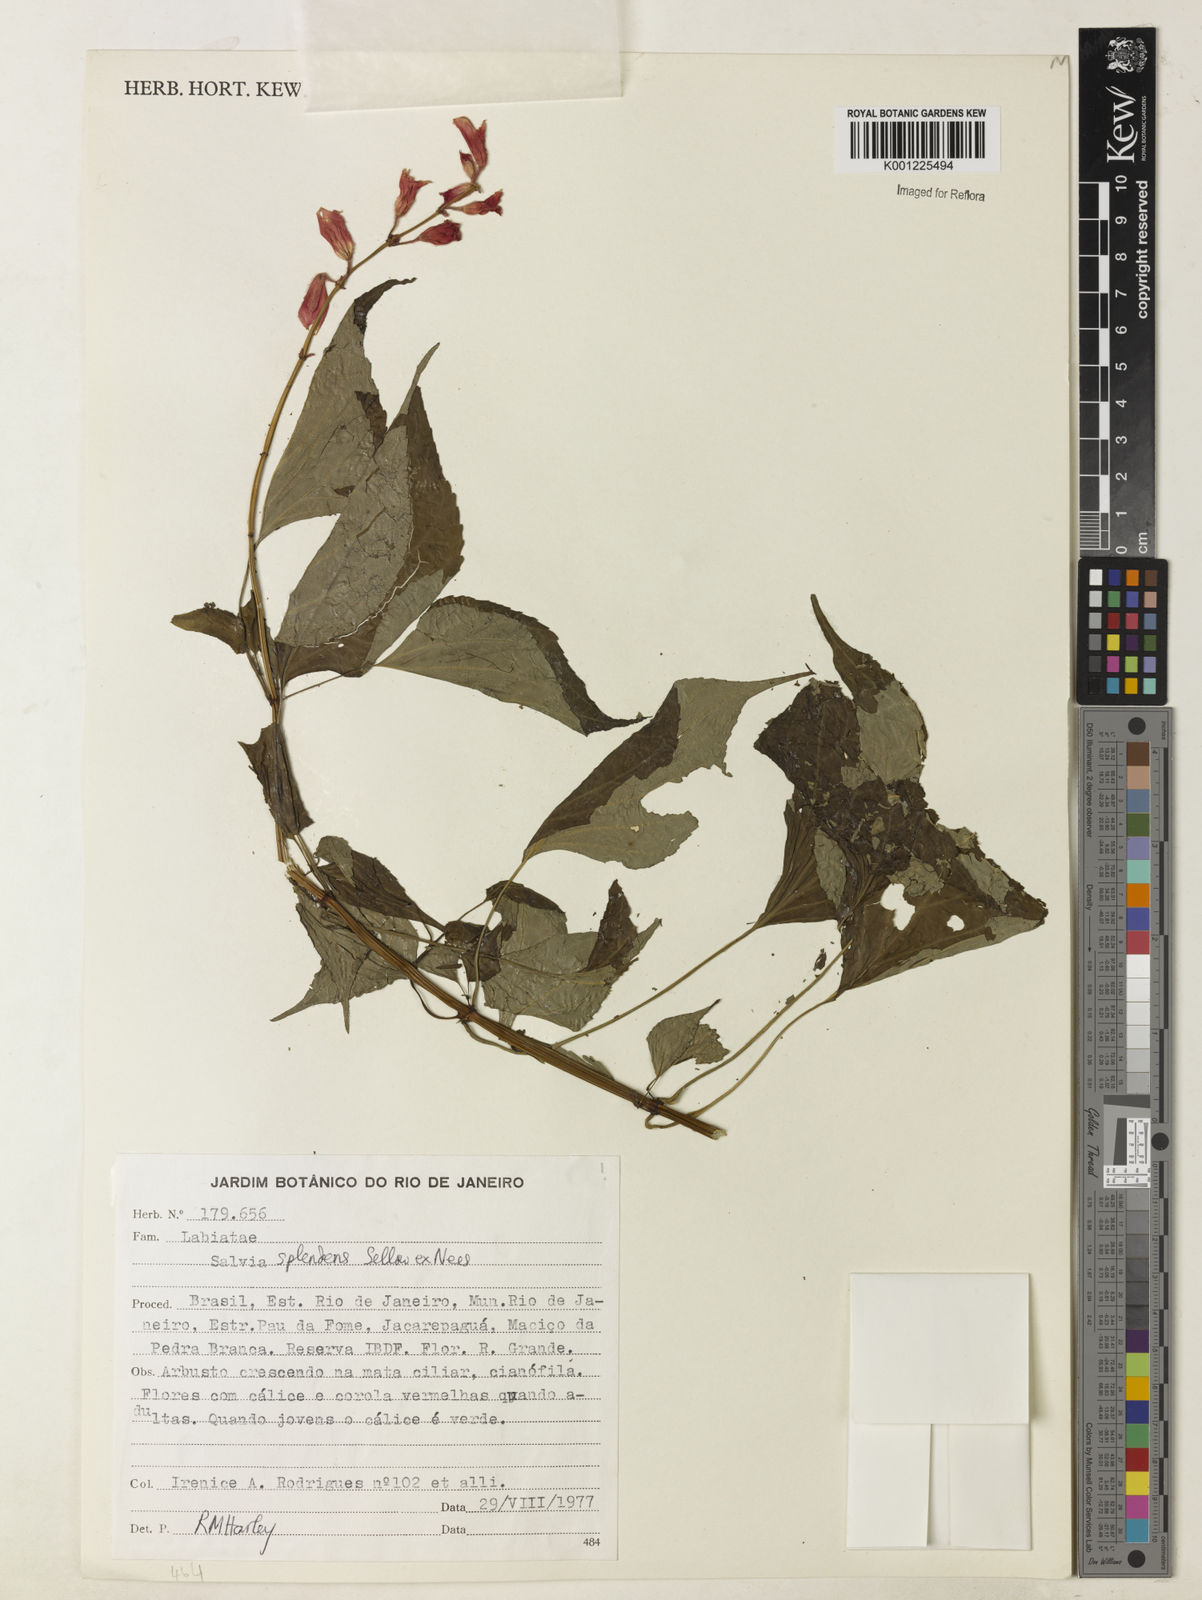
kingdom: Plantae
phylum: Tracheophyta
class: Magnoliopsida
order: Lamiales
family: Lamiaceae
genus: Salvia
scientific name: Salvia
